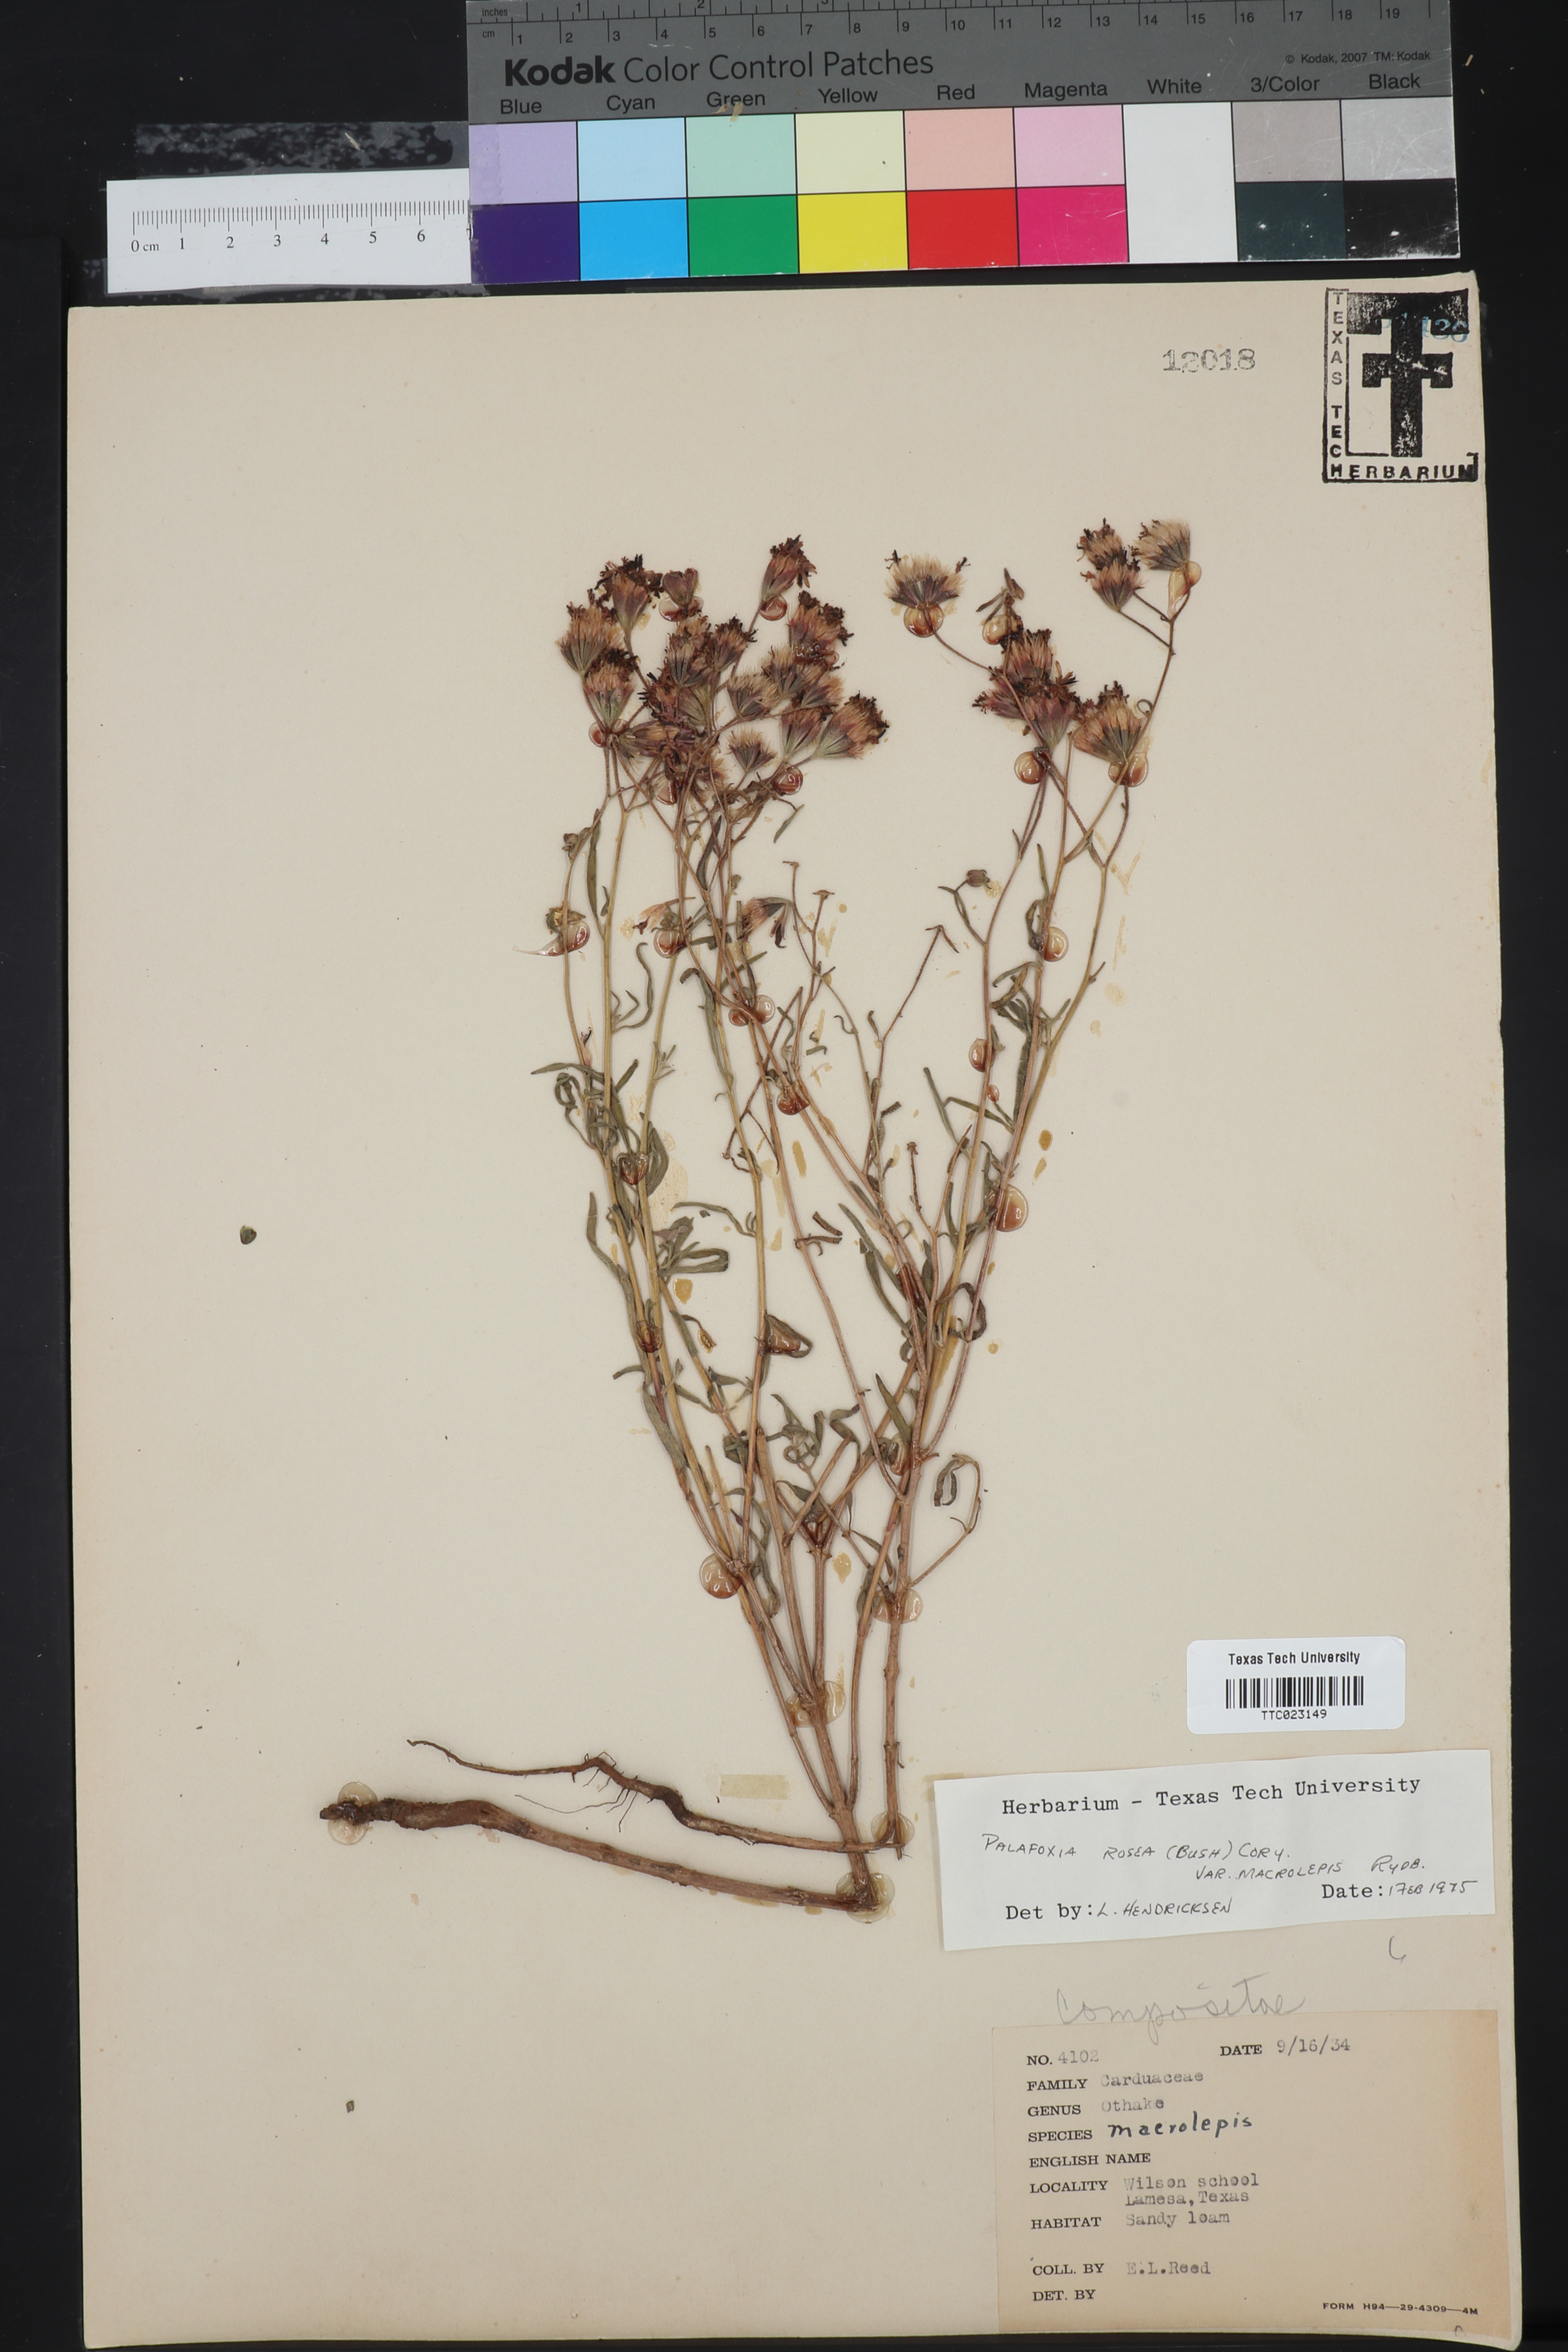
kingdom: Plantae
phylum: Tracheophyta
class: Magnoliopsida
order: Asterales
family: Asteraceae
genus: Palafoxia
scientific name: Palafoxia rosea
